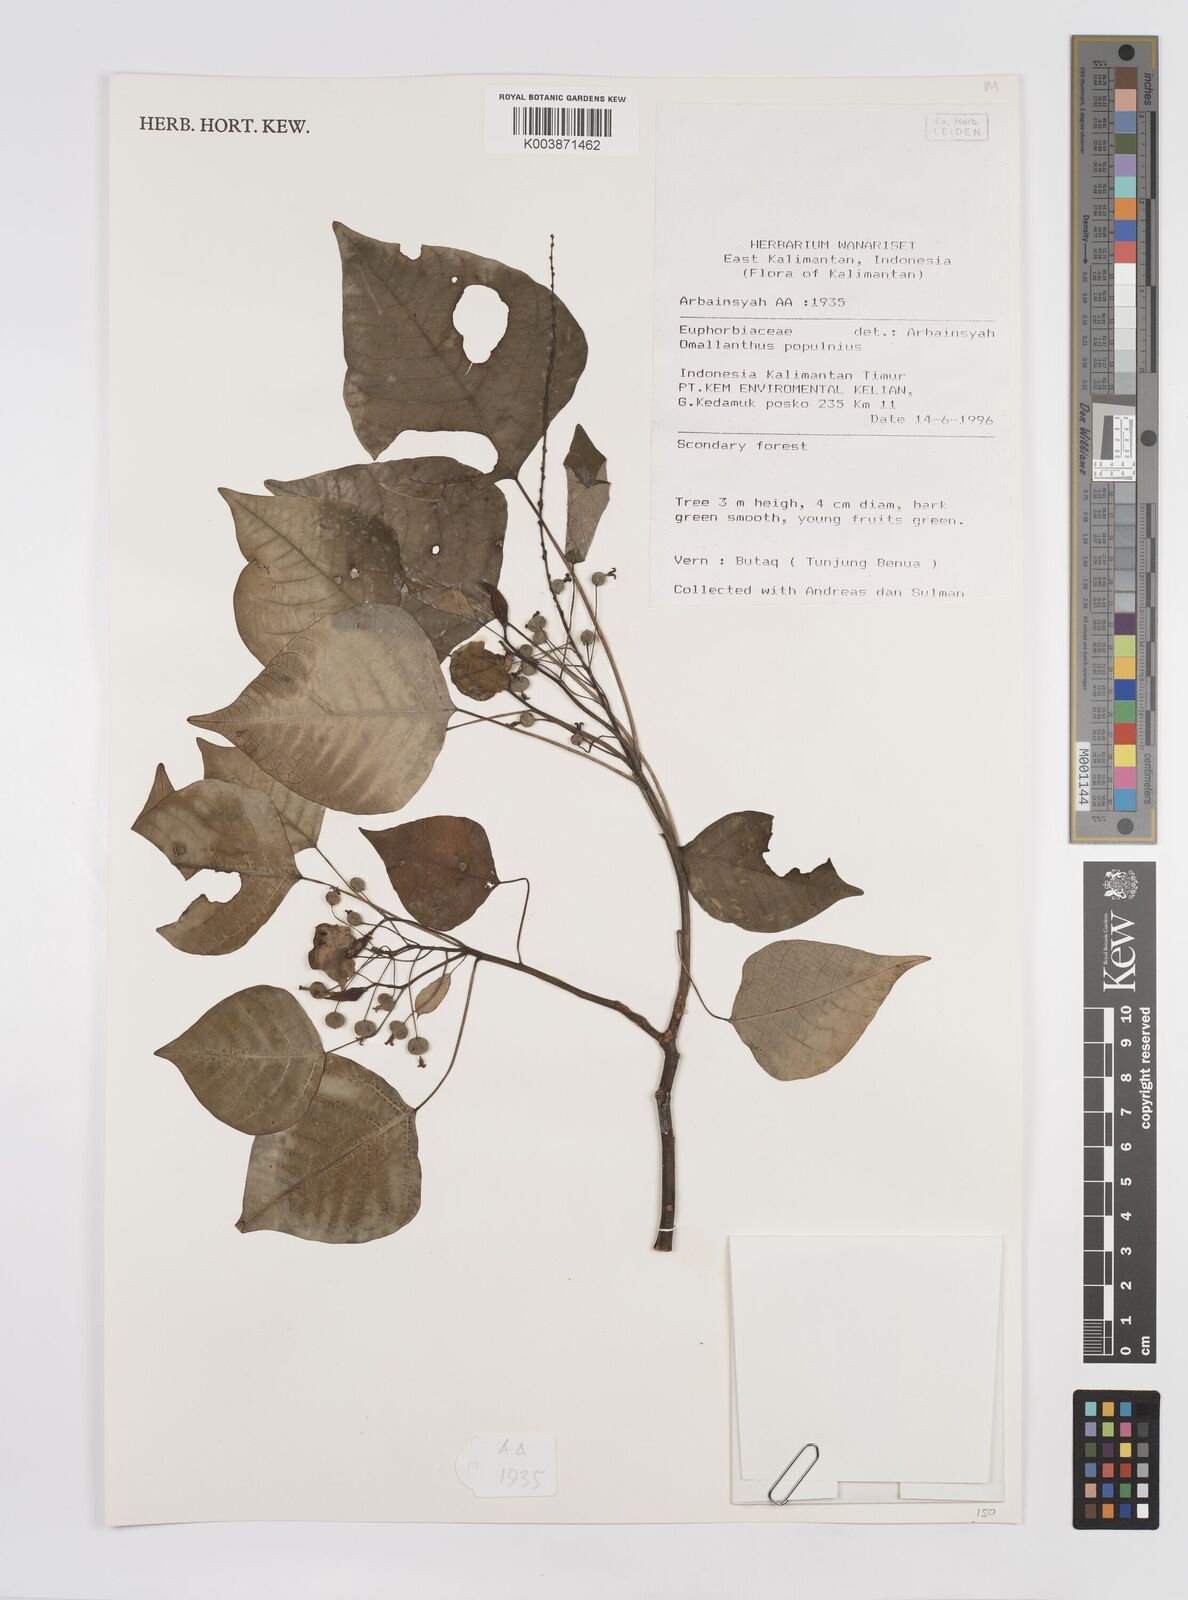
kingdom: Plantae
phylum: Tracheophyta
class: Magnoliopsida
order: Malpighiales
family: Euphorbiaceae
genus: Homalanthus
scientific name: Homalanthus populneus
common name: Spurge
